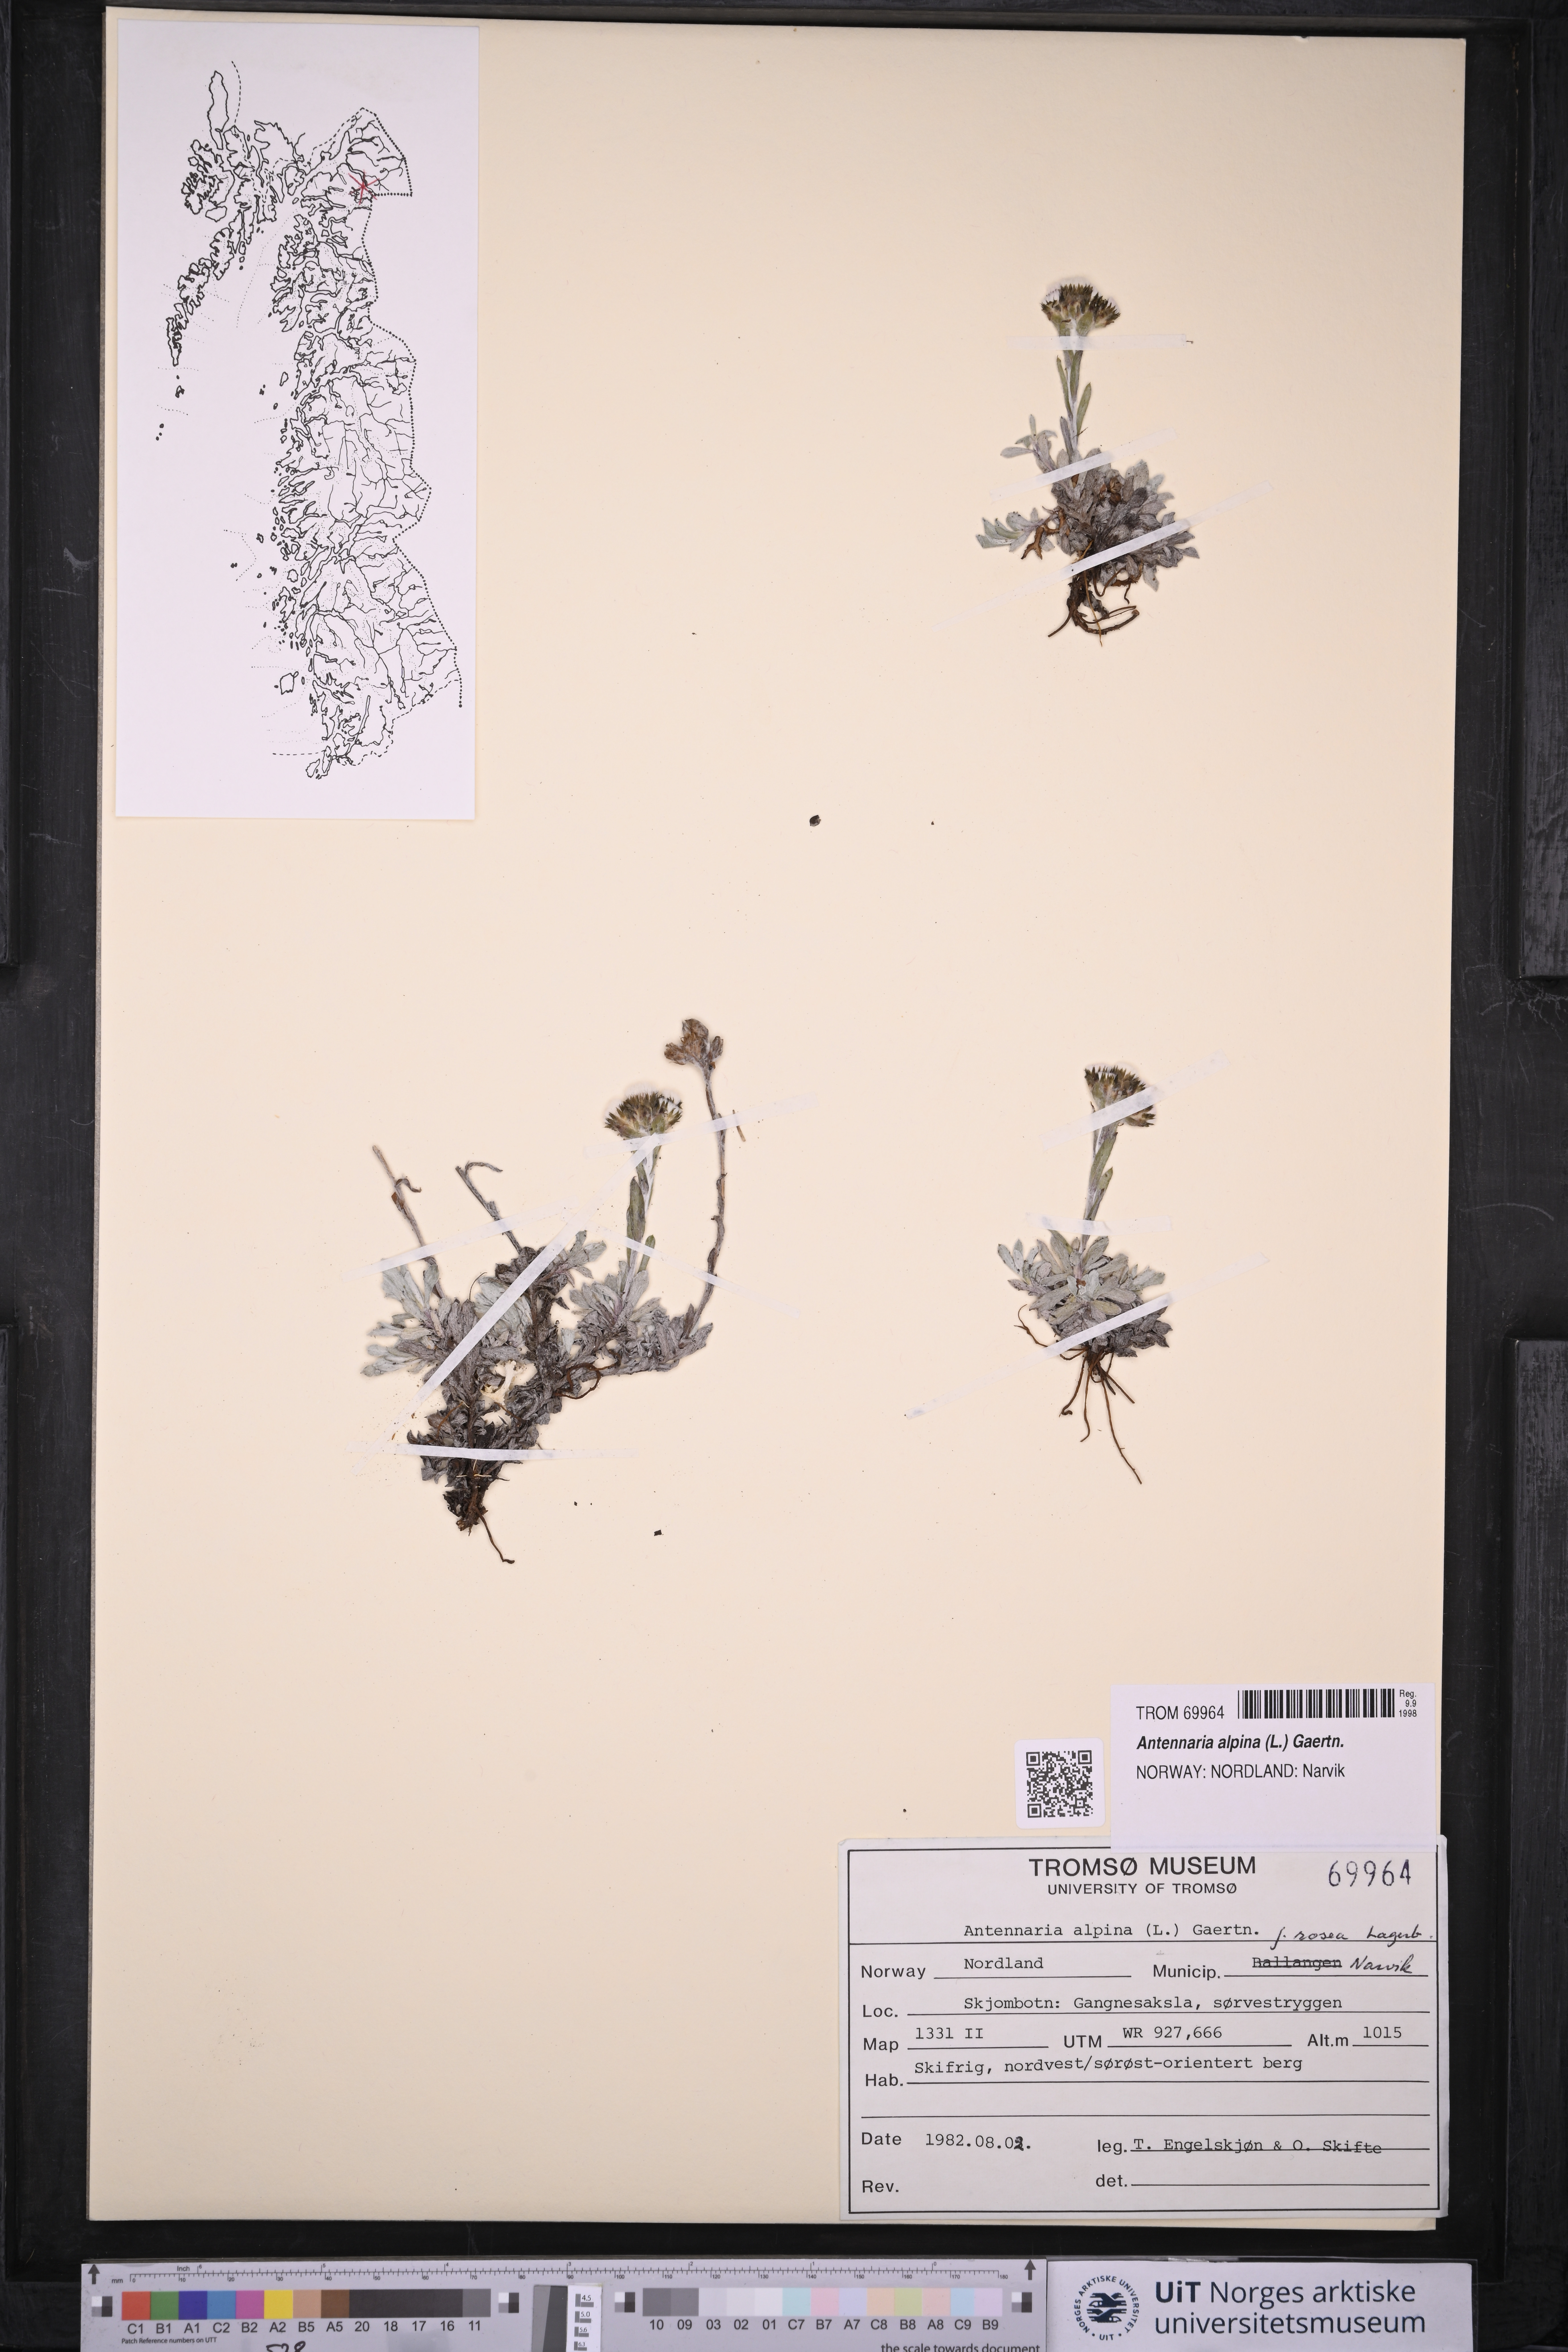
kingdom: Plantae
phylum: Tracheophyta
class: Magnoliopsida
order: Asterales
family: Asteraceae
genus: Antennaria
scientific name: Antennaria alpina
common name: Alpine pussytoes
